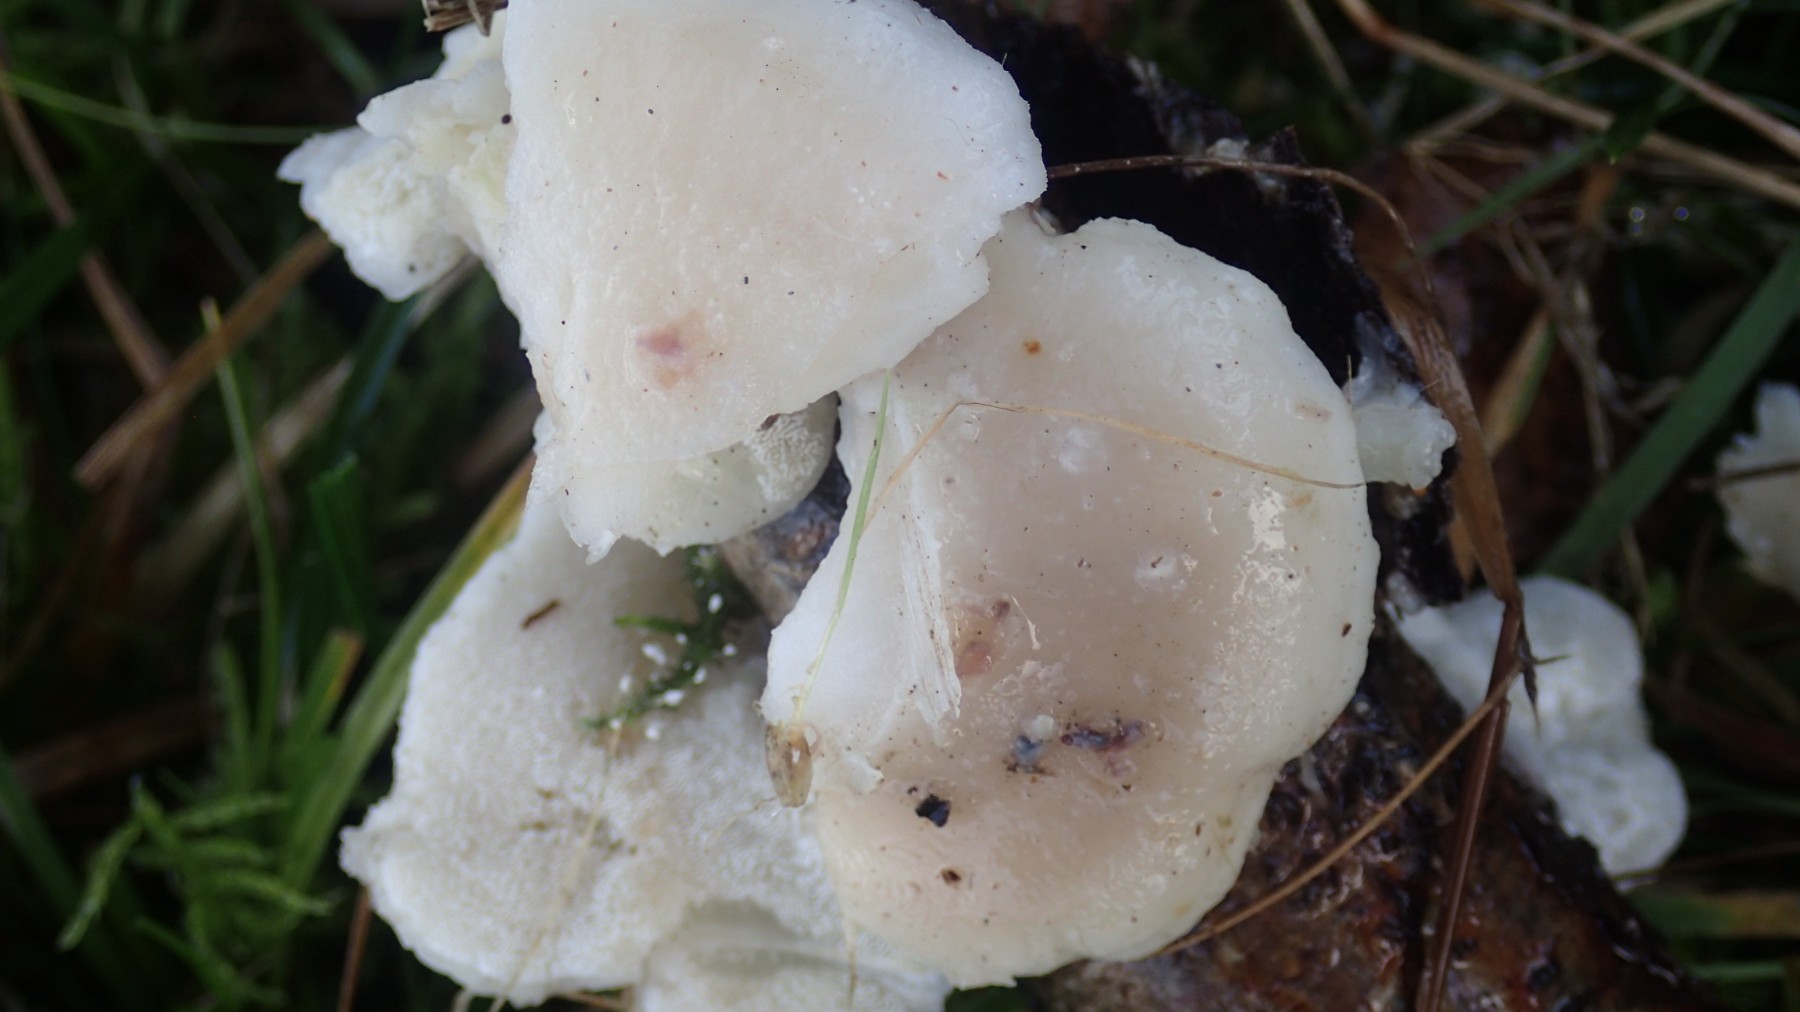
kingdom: Fungi
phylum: Basidiomycota
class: Agaricomycetes
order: Polyporales
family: Dacryobolaceae
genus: Postia
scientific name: Postia
